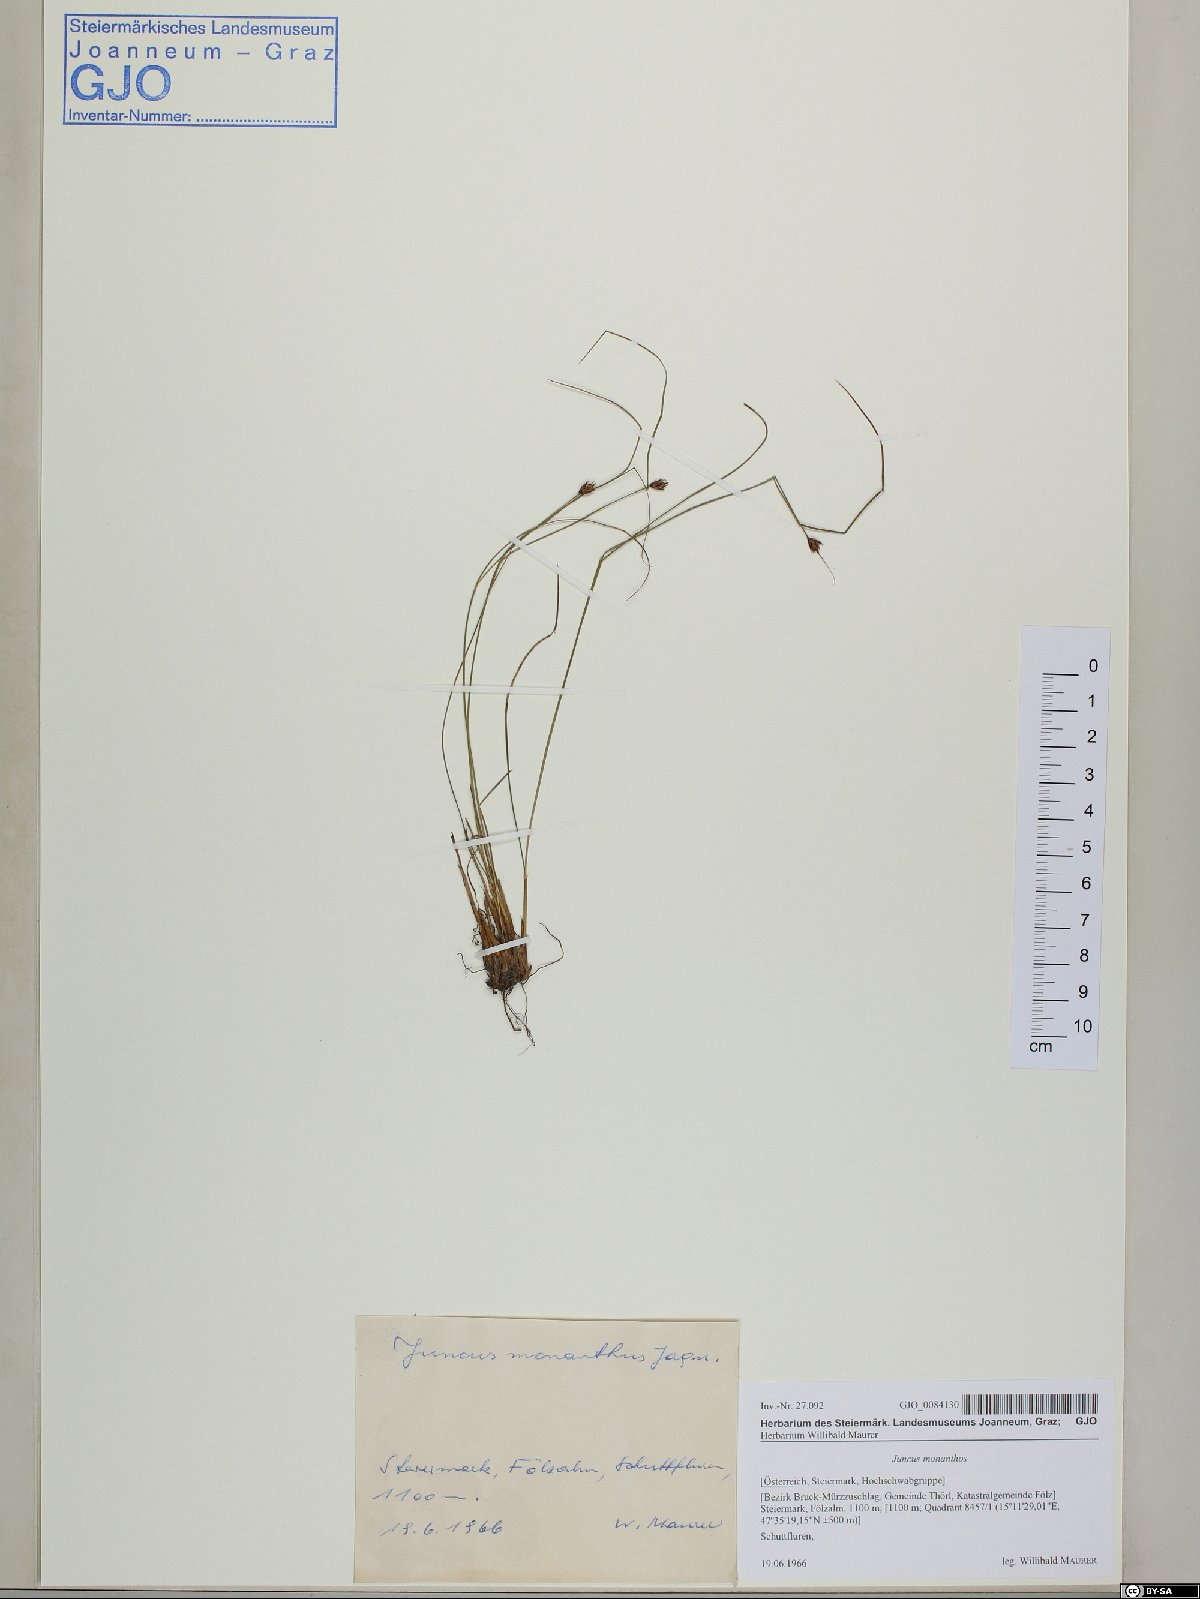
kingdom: Plantae
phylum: Tracheophyta
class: Liliopsida
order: Poales
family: Juncaceae
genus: Oreojuncus
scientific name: Oreojuncus monanthos
